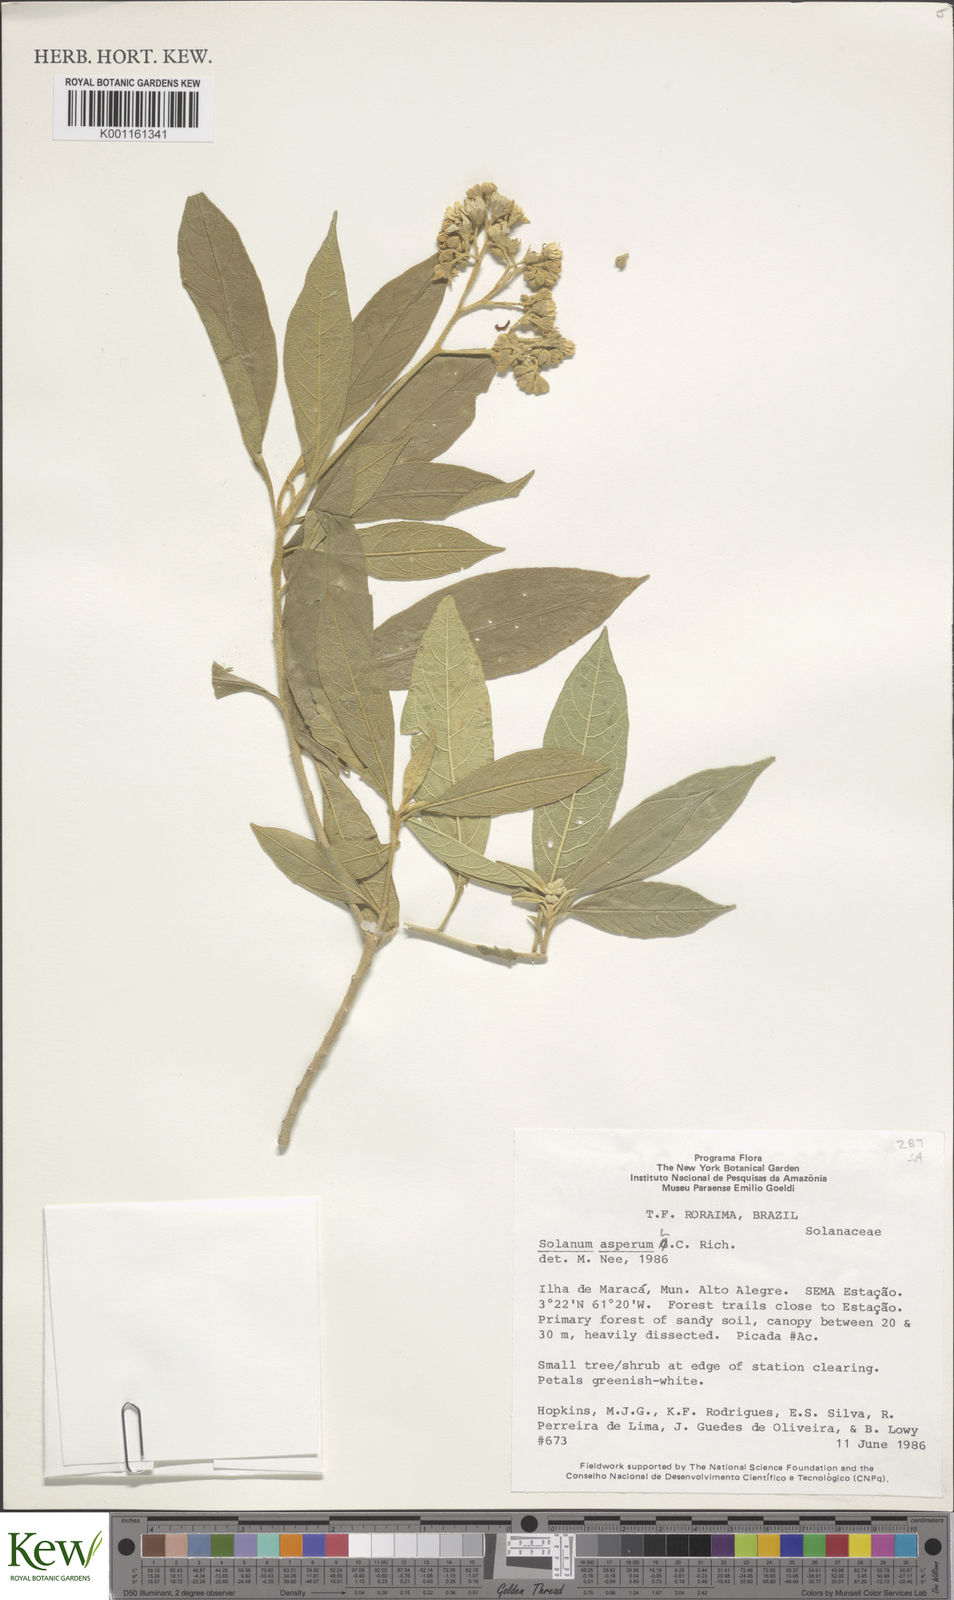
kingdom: Plantae
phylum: Tracheophyta
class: Magnoliopsida
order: Solanales
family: Solanaceae
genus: Solanum
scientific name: Solanum asperum
